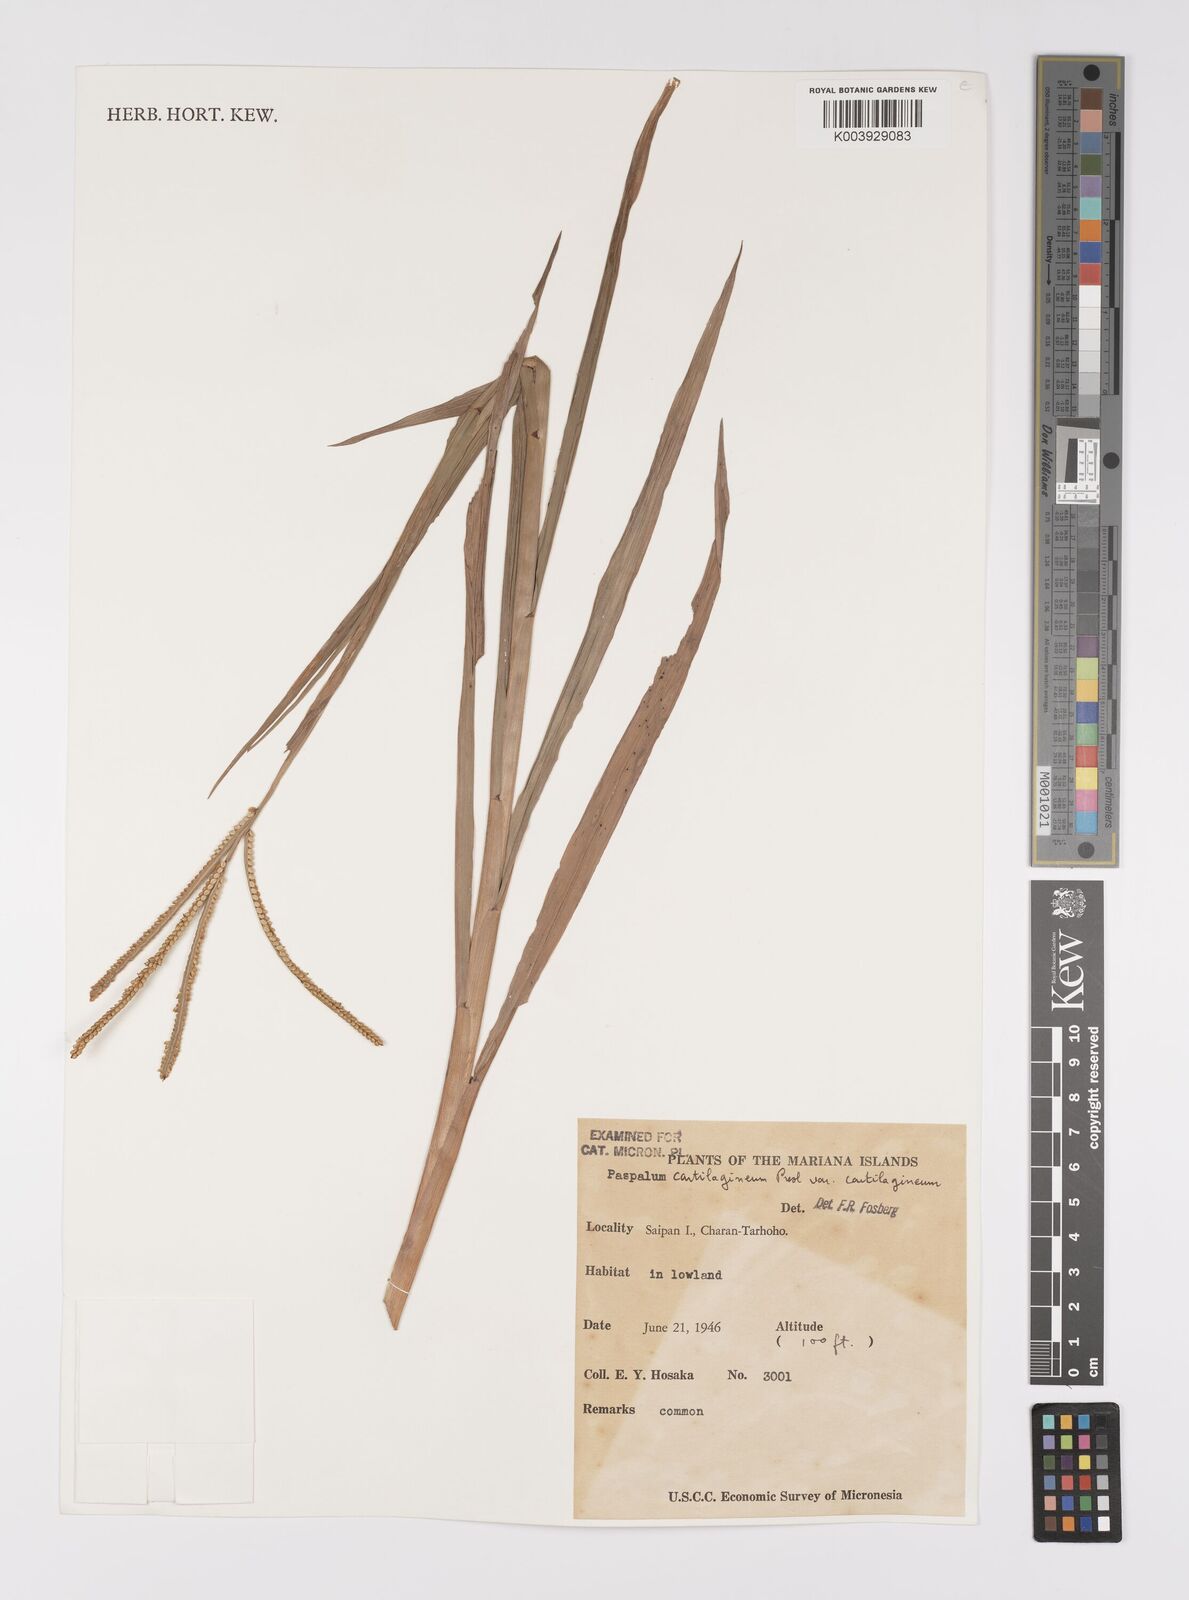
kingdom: Plantae
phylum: Tracheophyta
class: Liliopsida
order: Poales
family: Poaceae
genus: Paspalum
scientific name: Paspalum scrobiculatum
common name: Kodo millet
